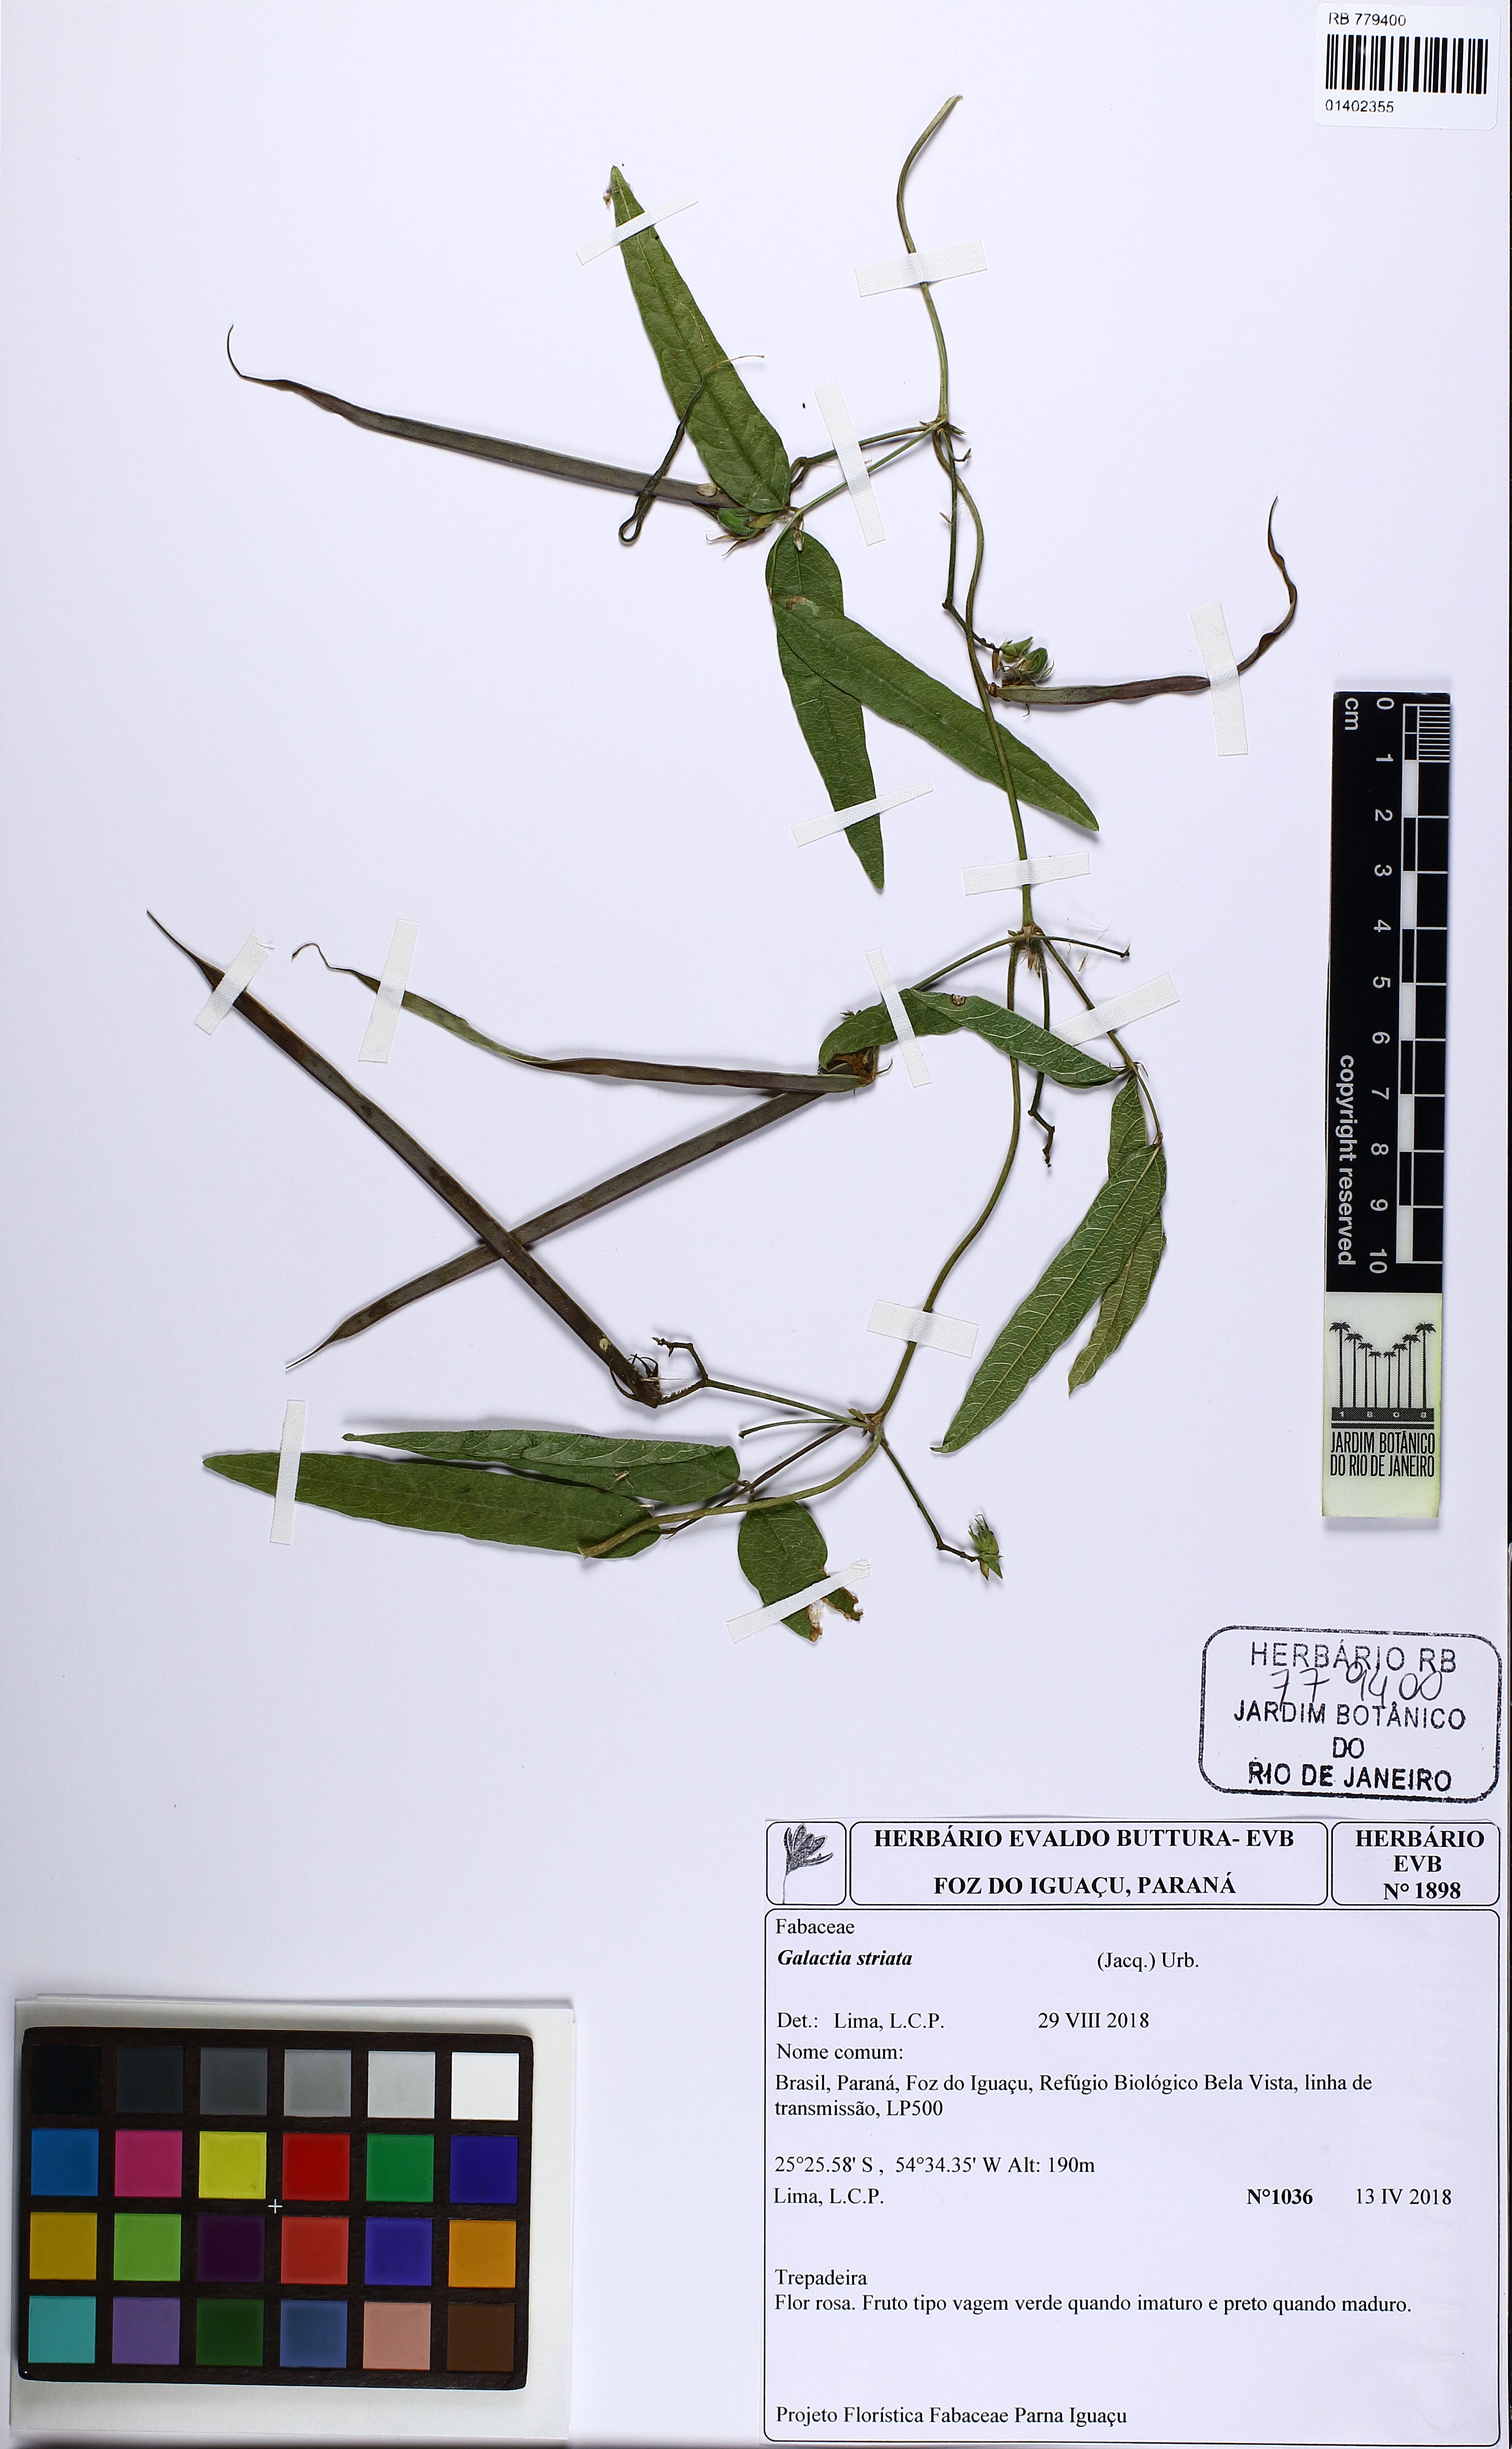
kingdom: Plantae
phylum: Tracheophyta
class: Magnoliopsida
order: Fabales
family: Fabaceae
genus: Galactia
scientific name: Galactia striata
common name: Florida hammock milkpea
